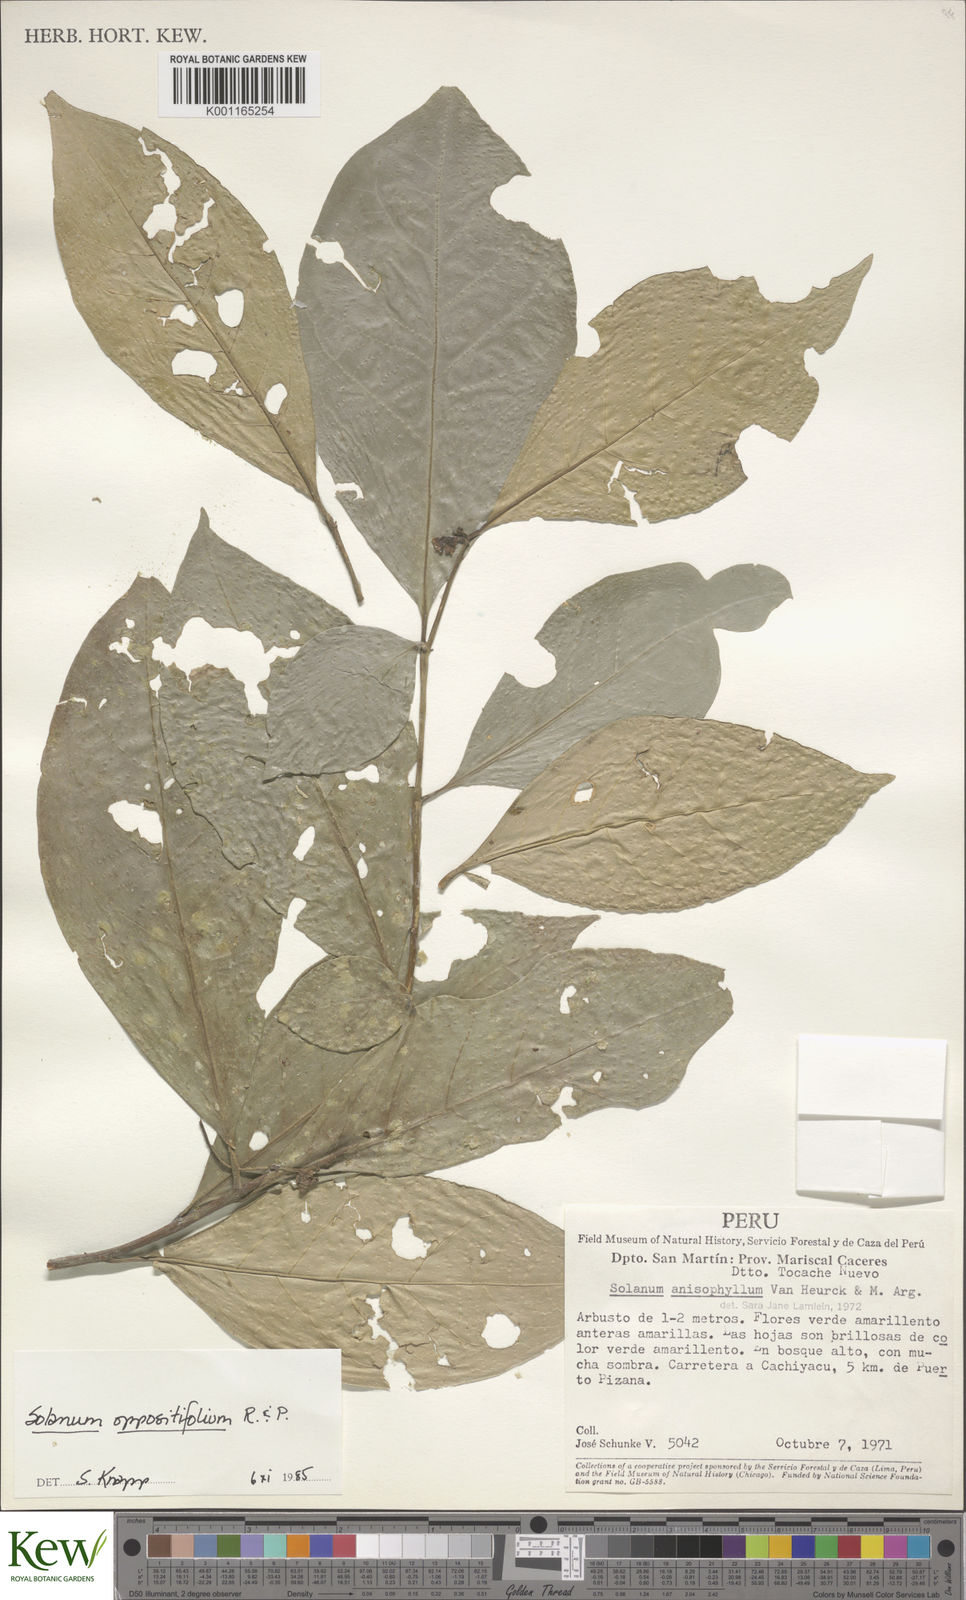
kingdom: Plantae
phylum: Tracheophyta
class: Magnoliopsida
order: Solanales
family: Solanaceae
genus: Solanum
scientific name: Solanum oppositifolium
